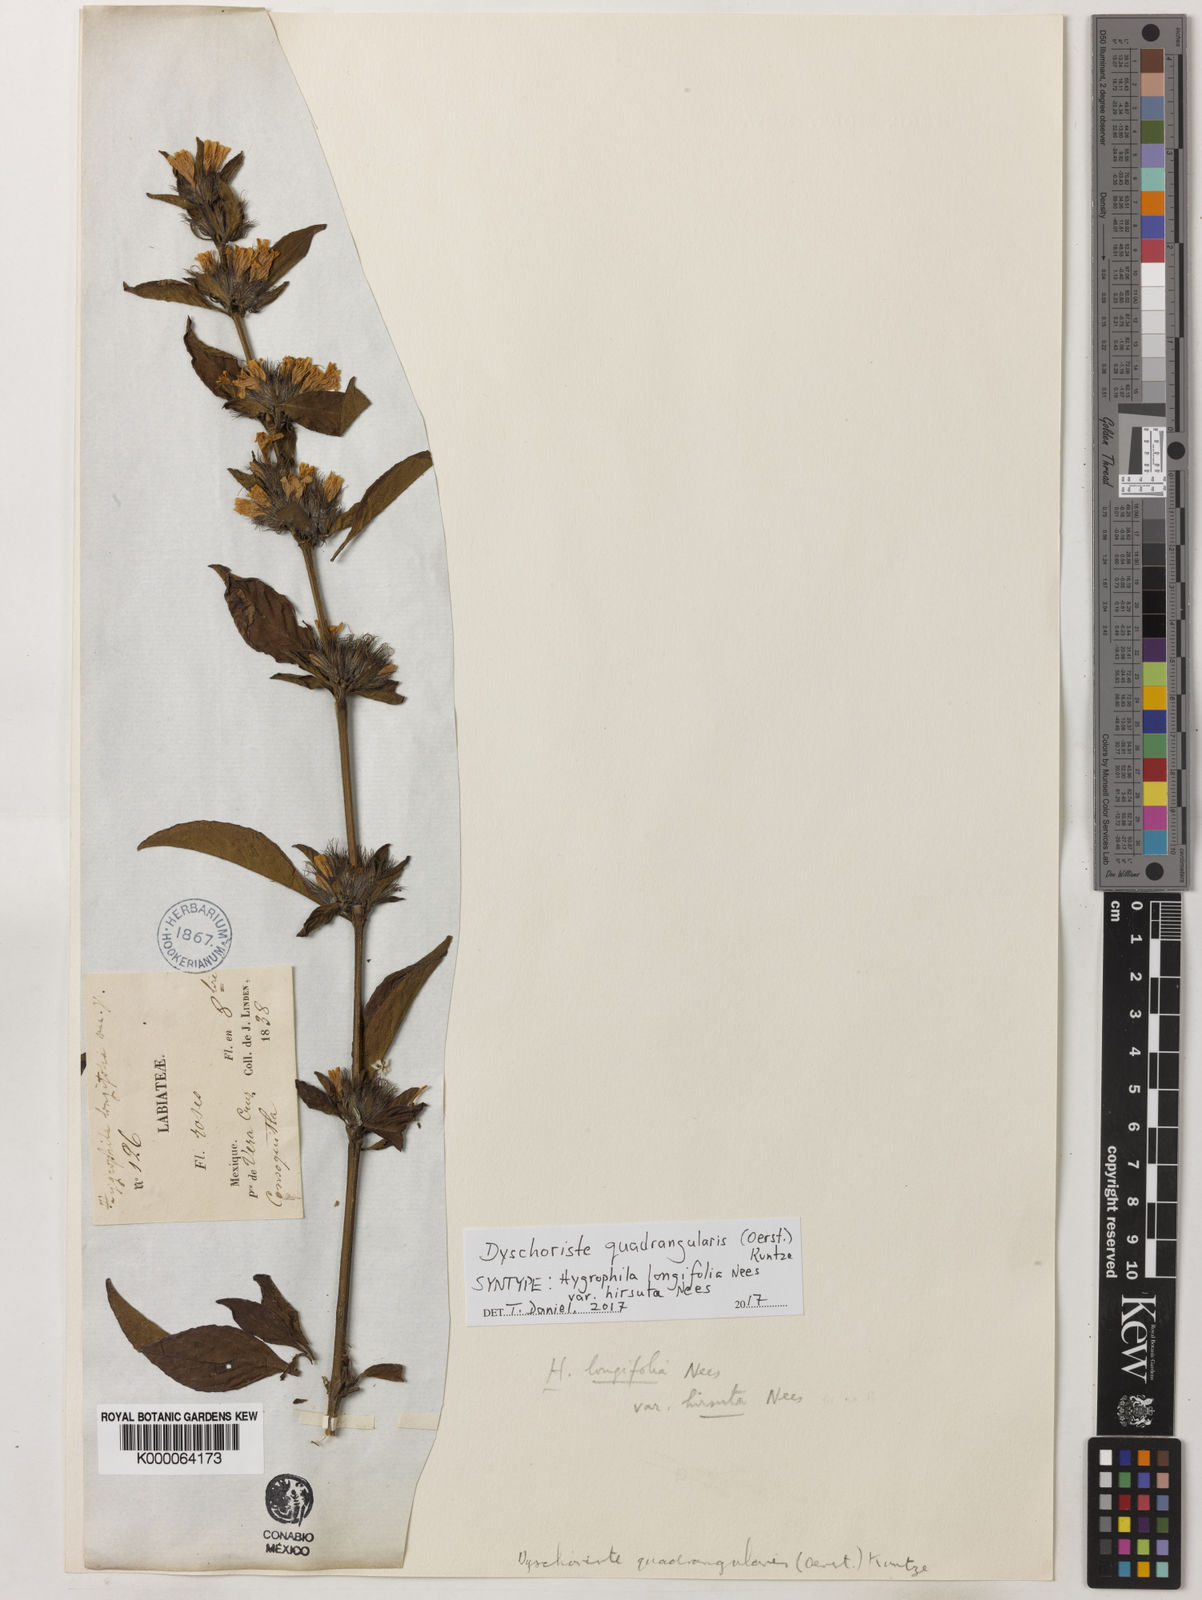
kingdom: Plantae
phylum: Tracheophyta
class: Magnoliopsida
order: Lamiales
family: Acanthaceae
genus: Dyschoriste
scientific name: Dyschoriste quadrangularis
